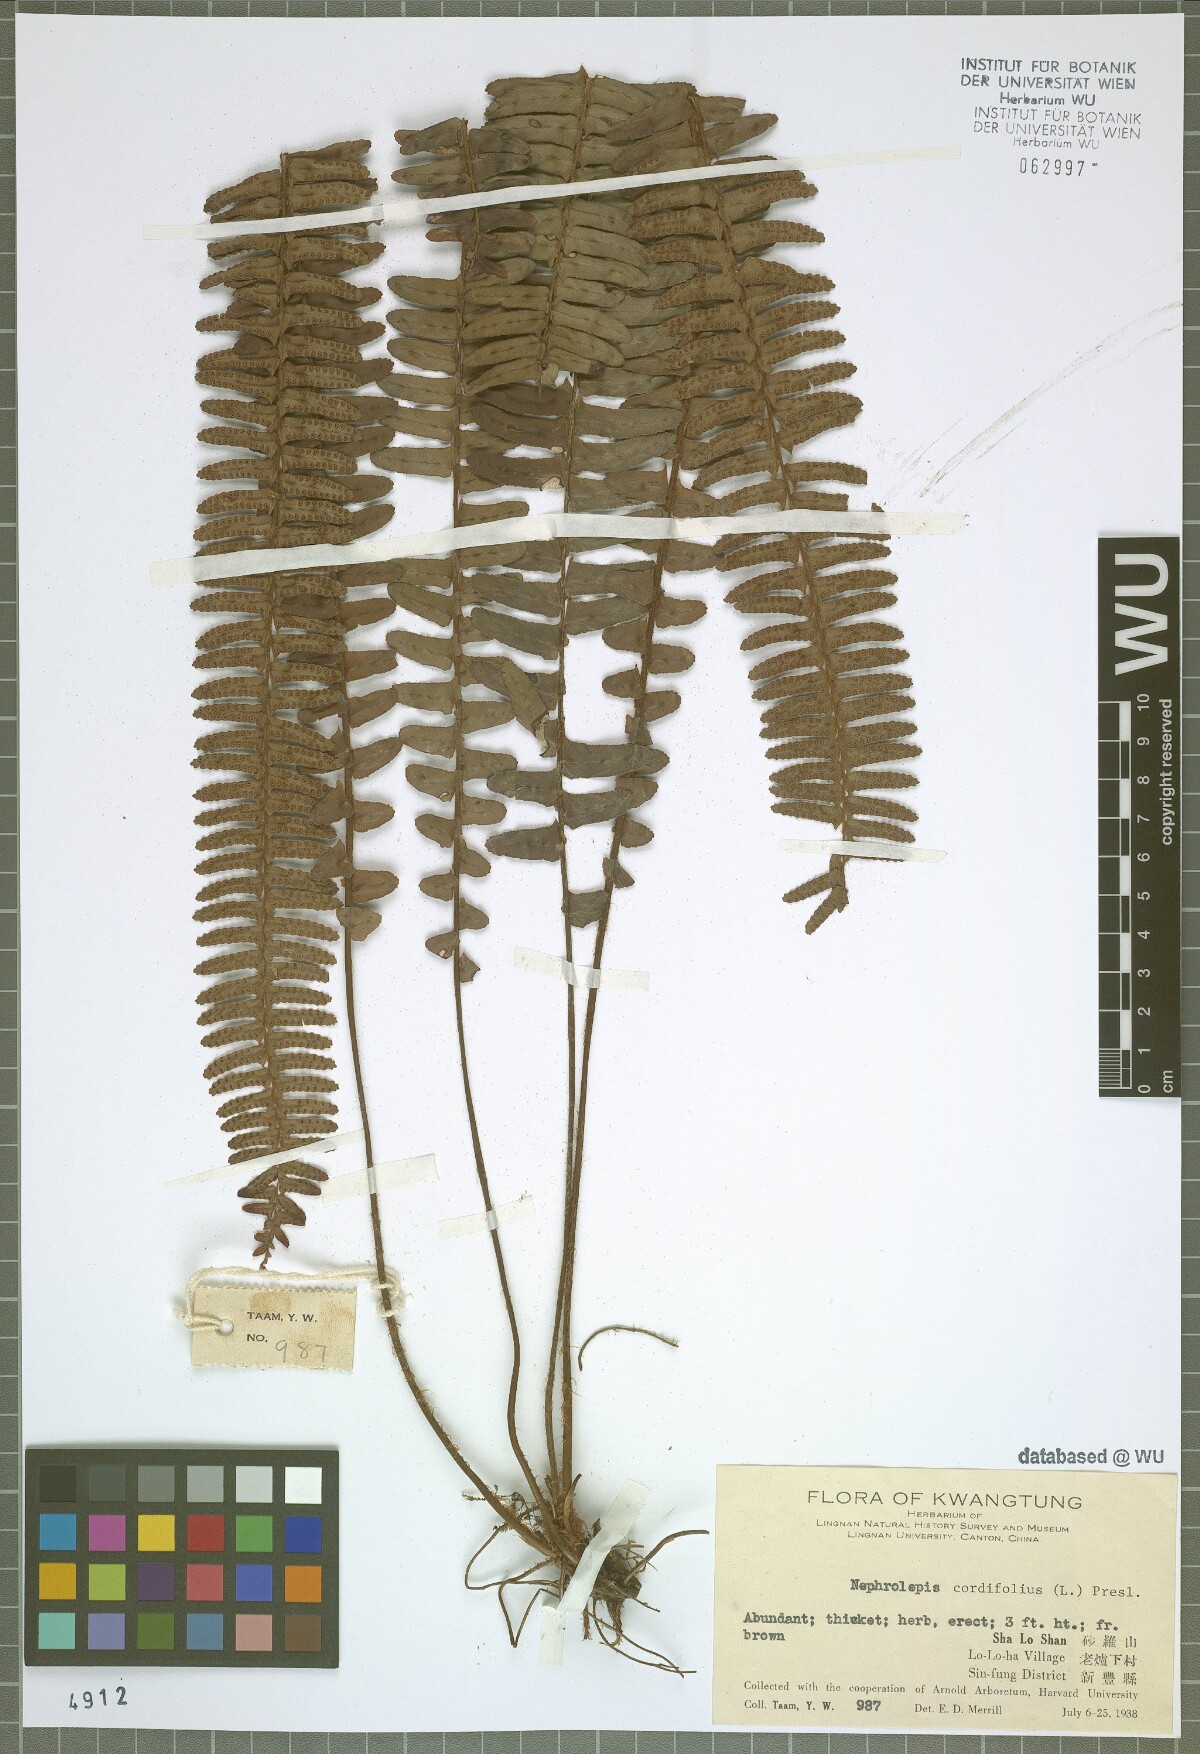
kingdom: Plantae
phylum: Tracheophyta
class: Polypodiopsida
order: Polypodiales
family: Nephrolepidaceae
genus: Nephrolepis
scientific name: Nephrolepis cordifolia
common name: Narrow swordfern
